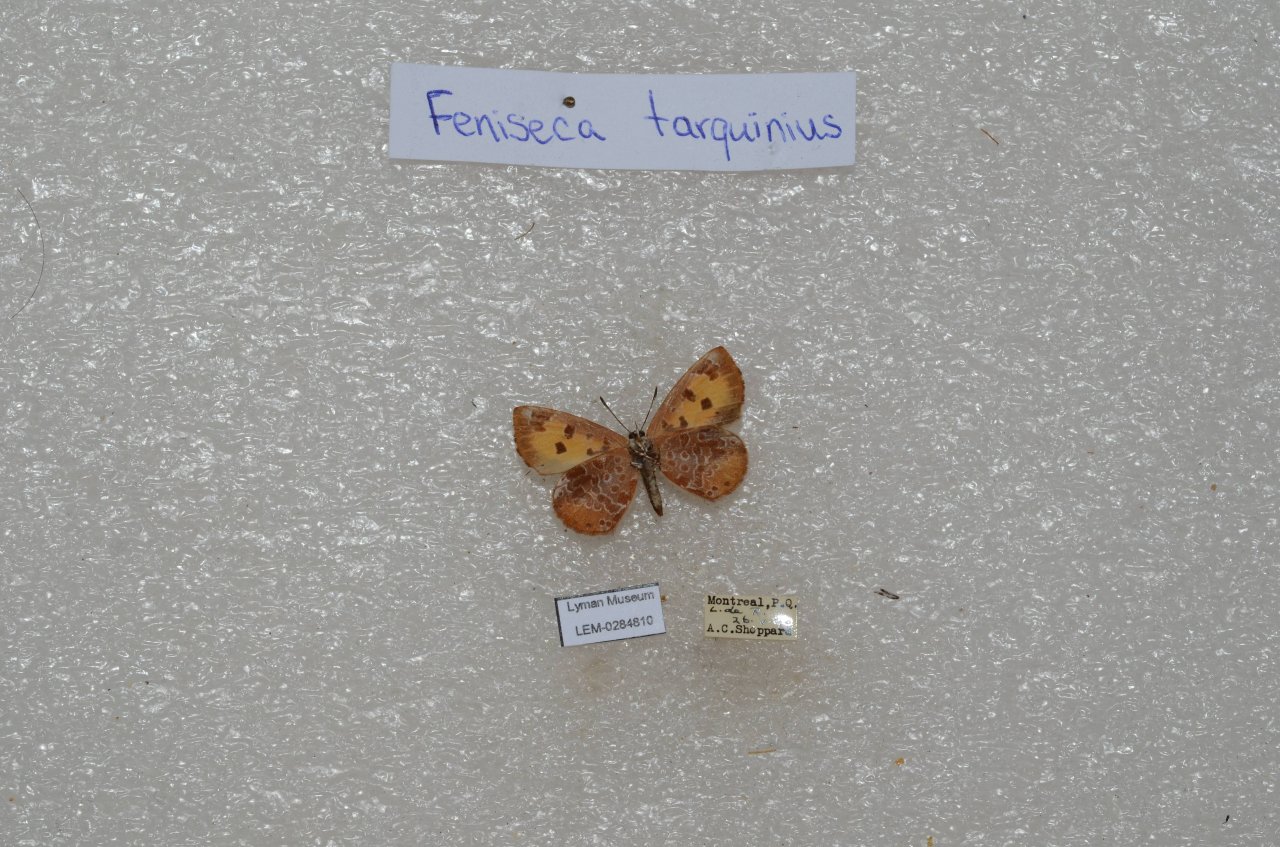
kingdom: Animalia
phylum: Arthropoda
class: Insecta
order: Lepidoptera
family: Lycaenidae
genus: Feniseca
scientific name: Feniseca tarquinius
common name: Harvester
